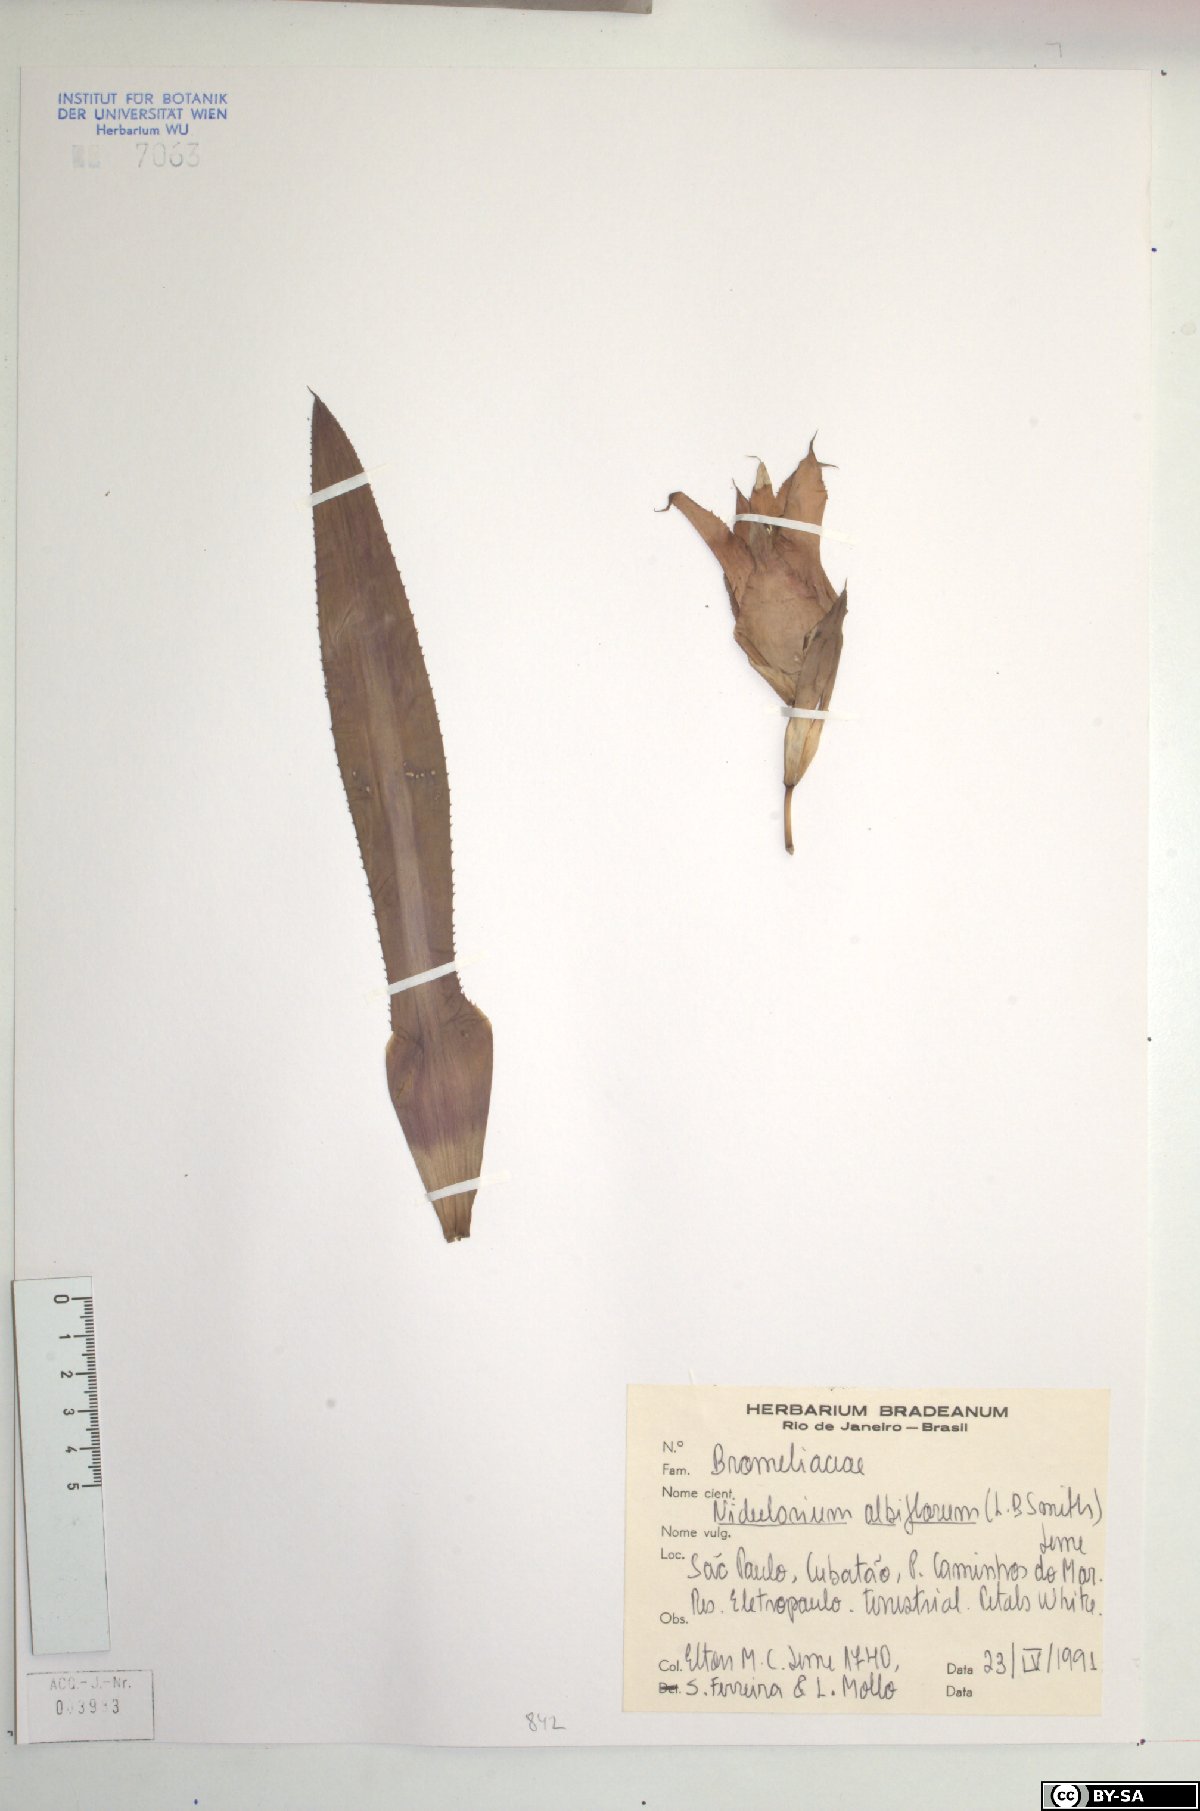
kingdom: Plantae
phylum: Tracheophyta
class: Liliopsida
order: Poales
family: Bromeliaceae
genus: Nidularium
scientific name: Nidularium albiflorum
